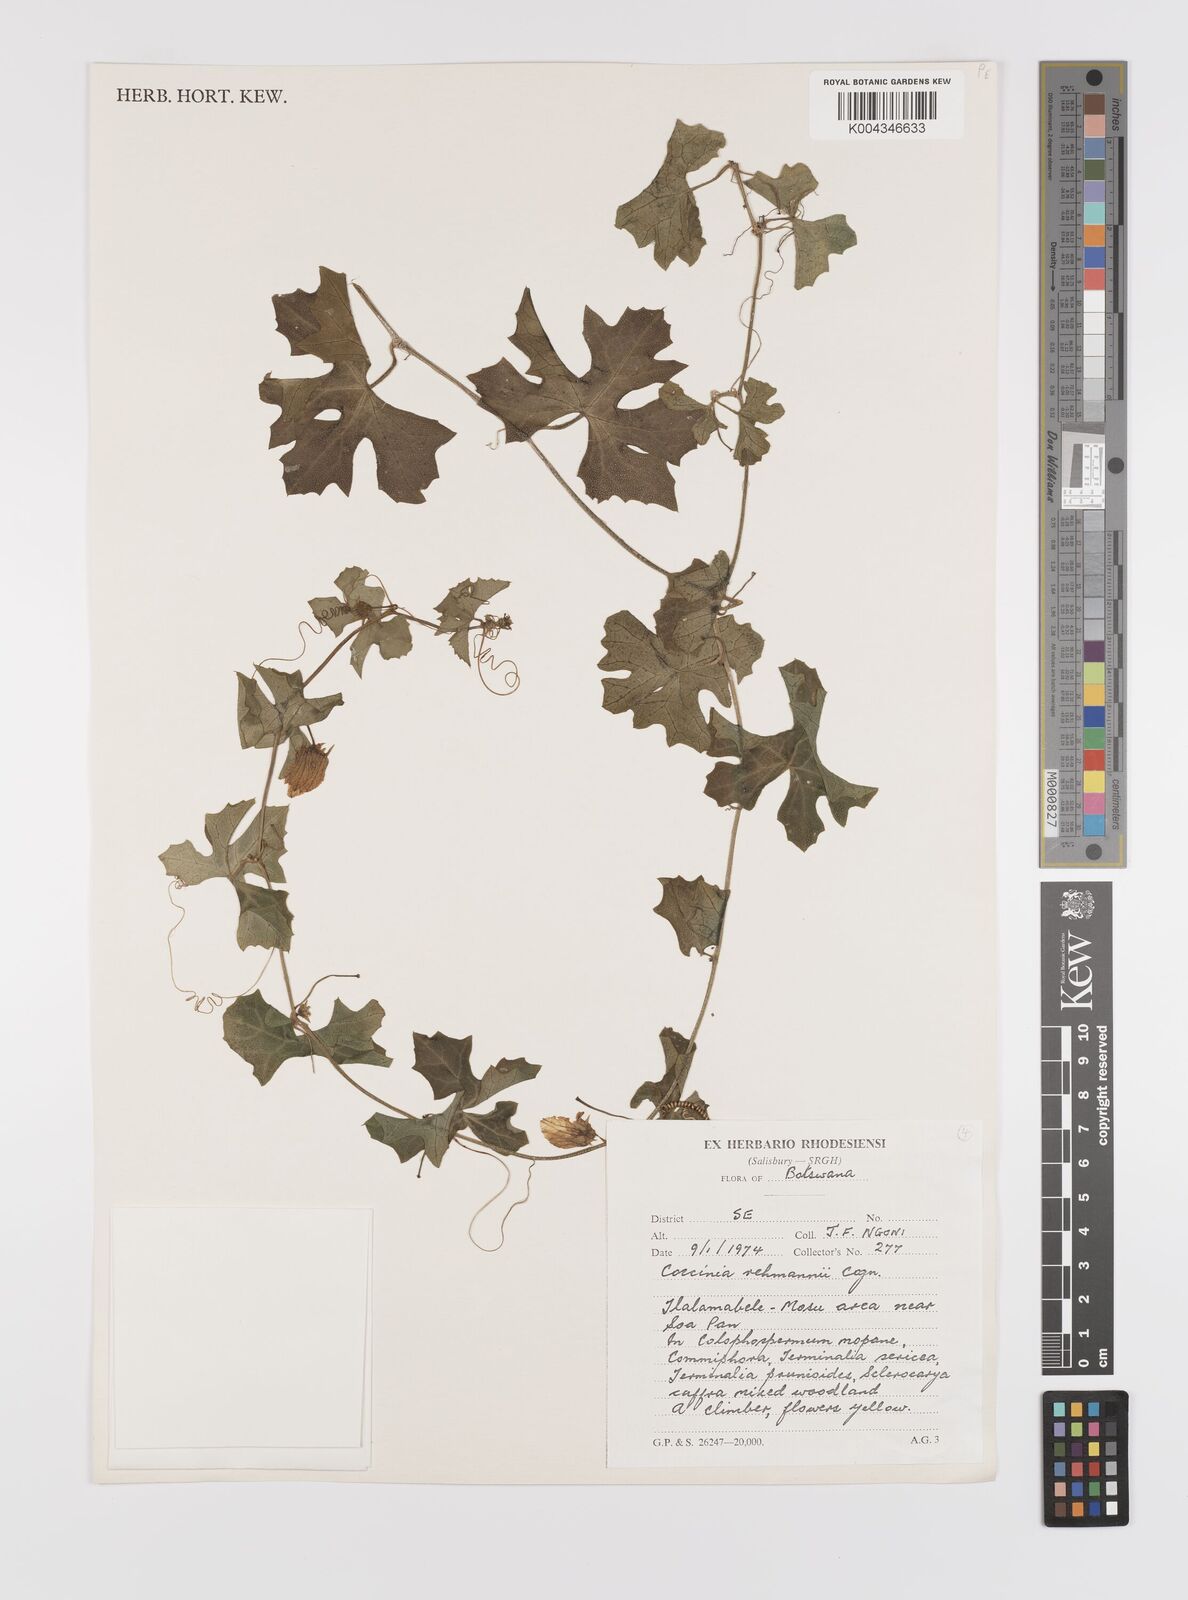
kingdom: Plantae
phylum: Tracheophyta
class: Magnoliopsida
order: Cucurbitales
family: Cucurbitaceae
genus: Coccinia
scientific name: Coccinia rehmannii
